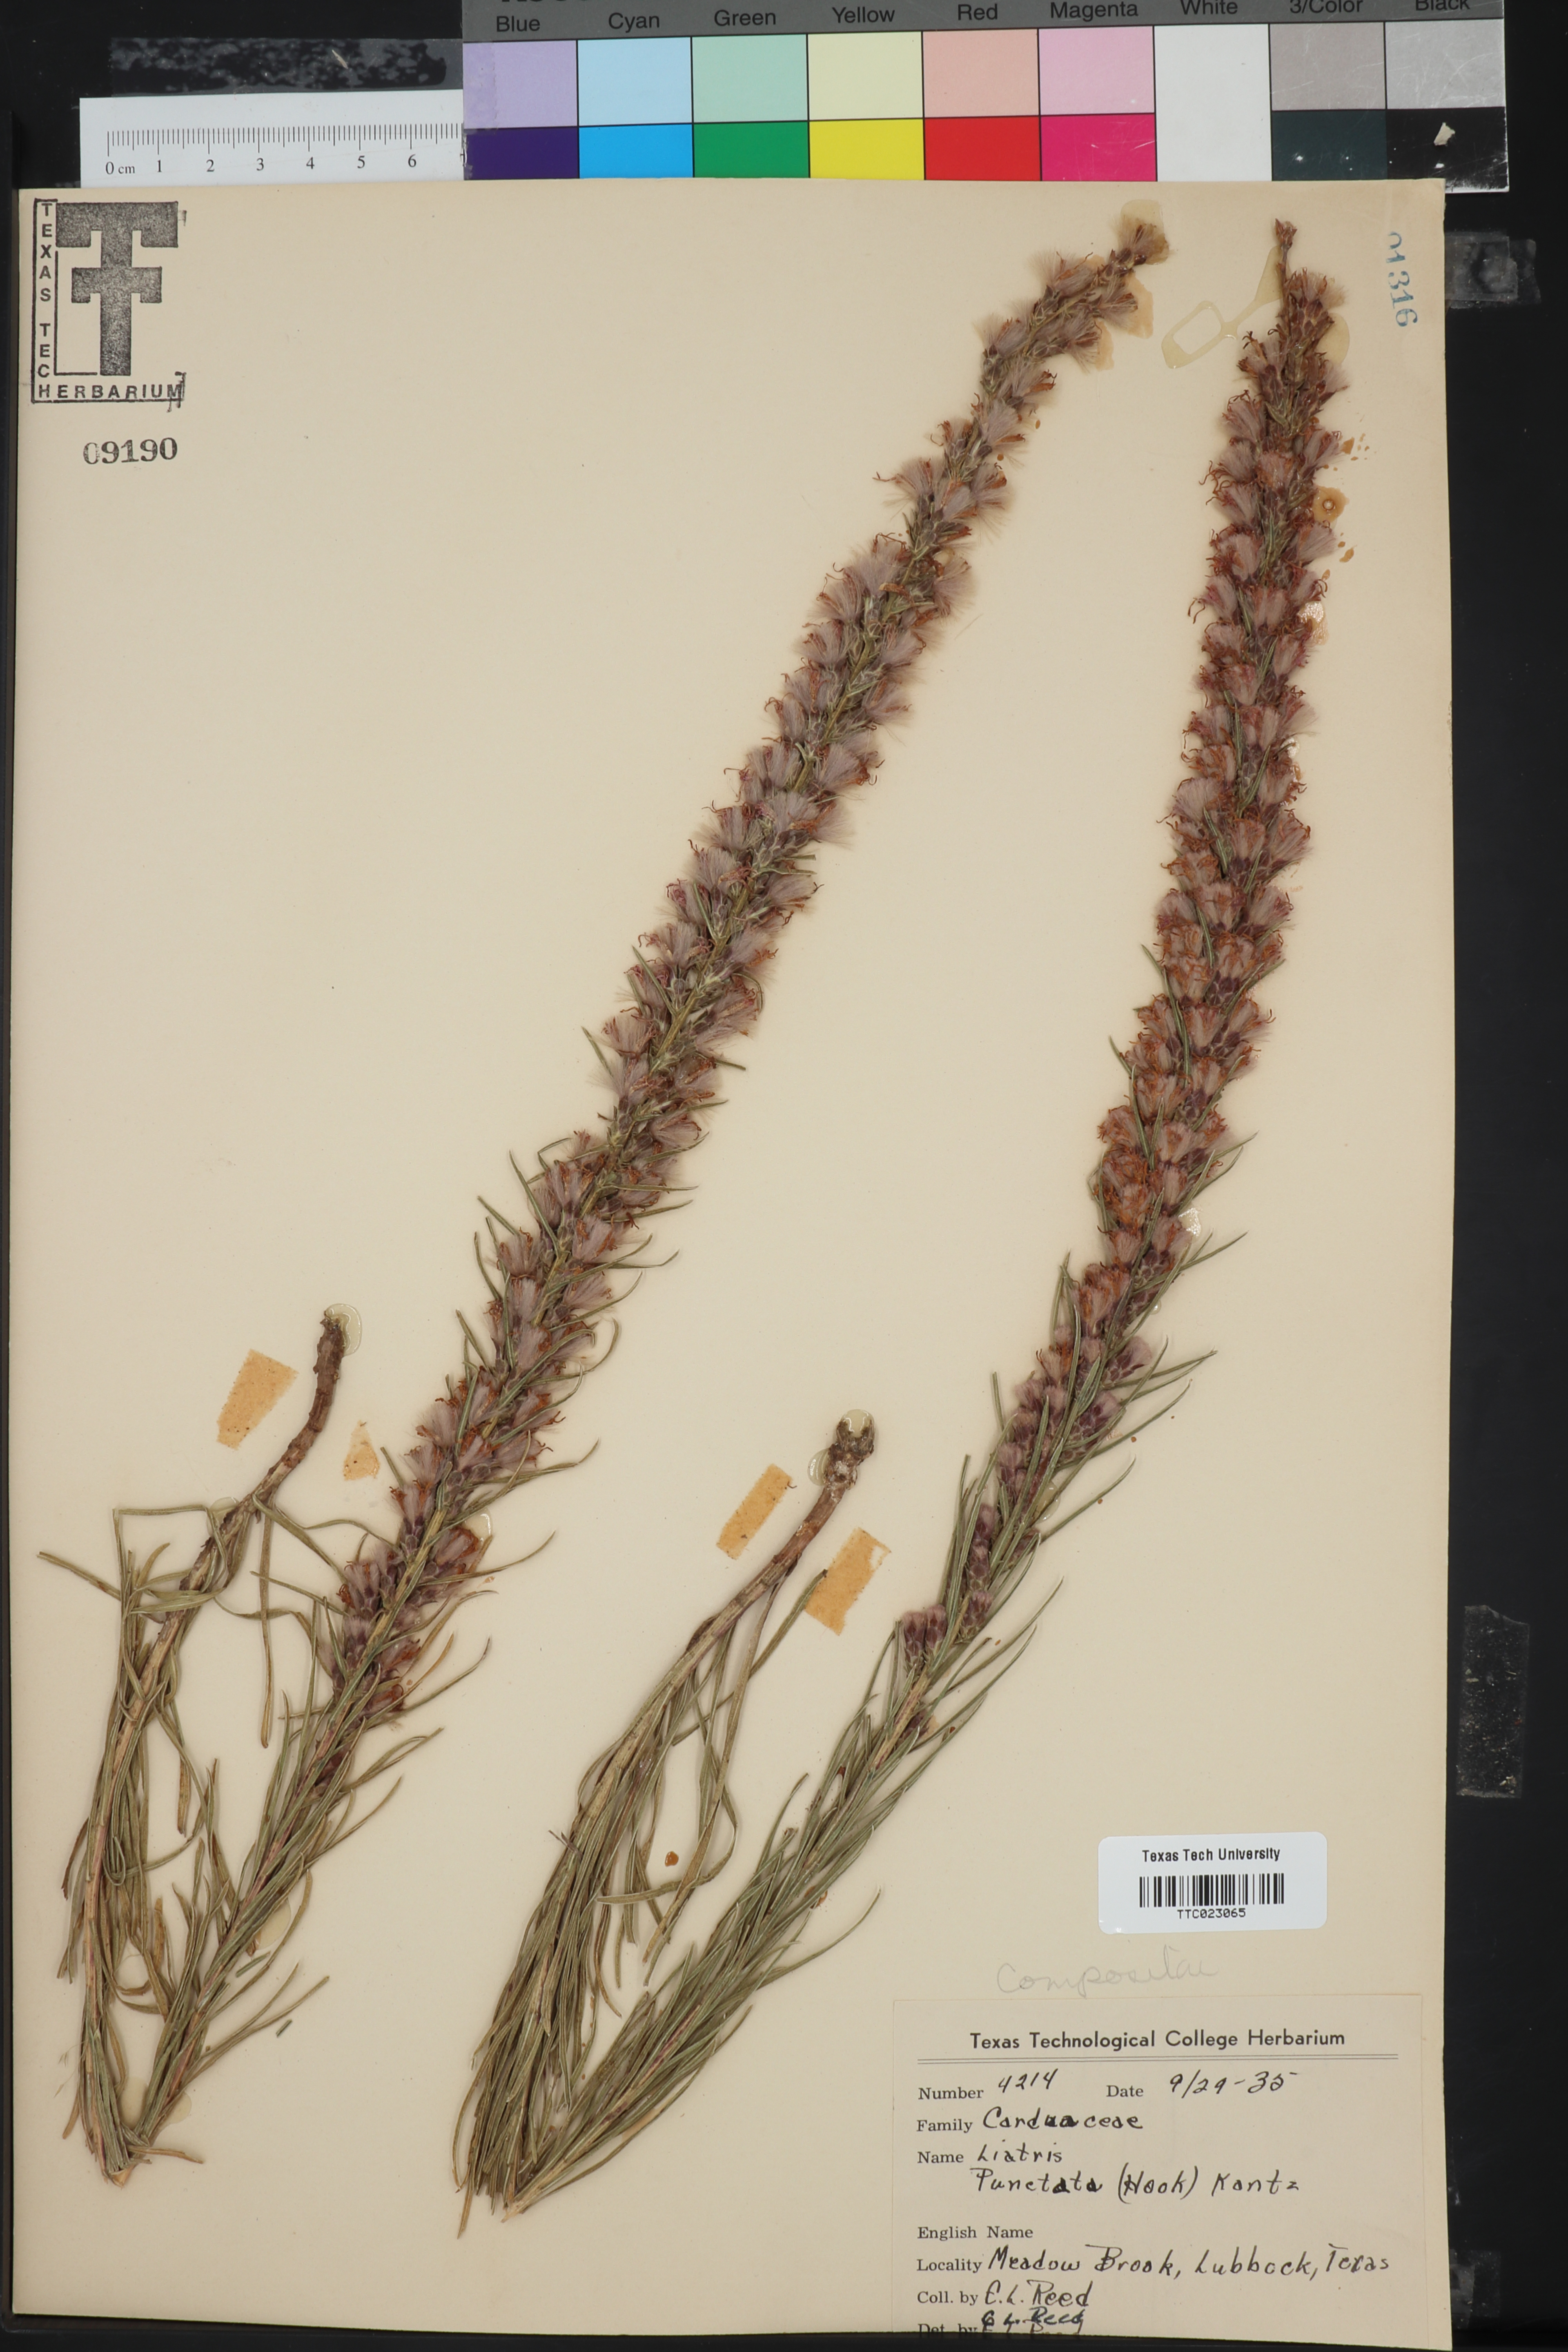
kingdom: Plantae
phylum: Tracheophyta
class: Magnoliopsida
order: Asterales
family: Asteraceae
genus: Liatris
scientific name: Liatris punctata
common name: Dotted gayfeather
